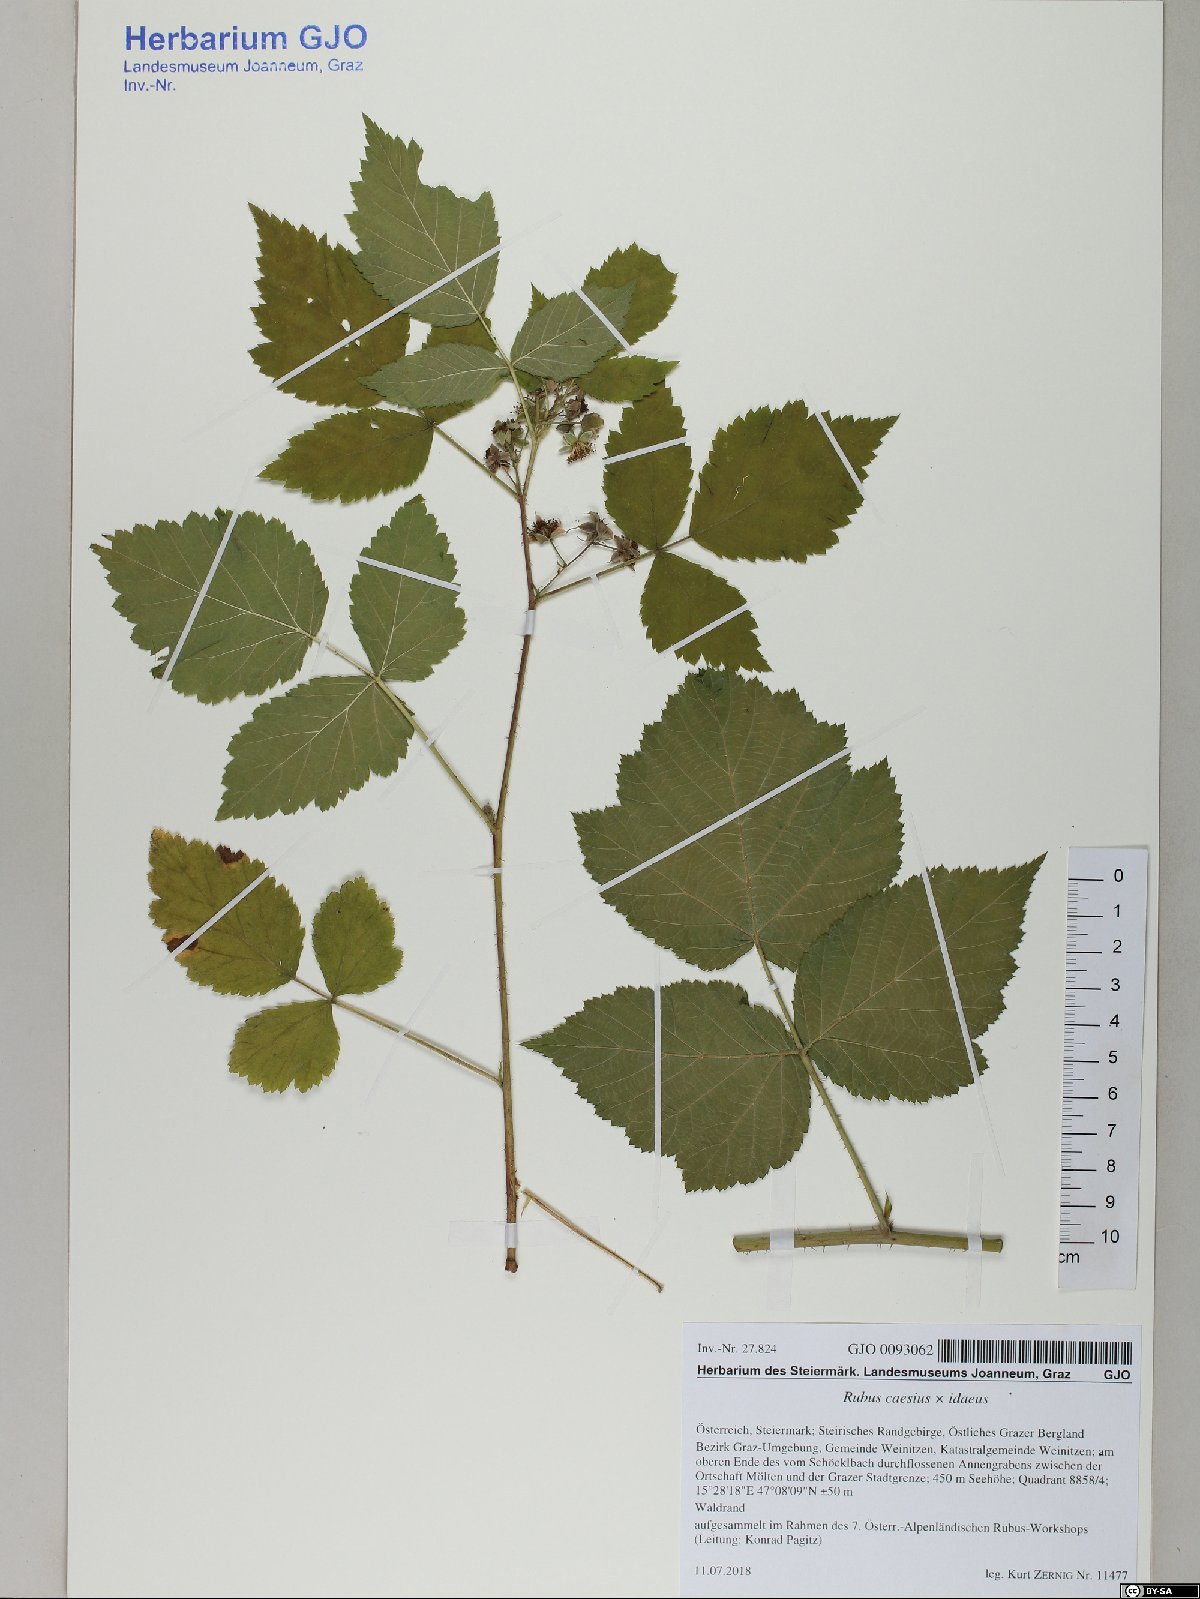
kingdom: Plantae
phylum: Tracheophyta
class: Magnoliopsida
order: Rosales
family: Rosaceae
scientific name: Rosaceae
